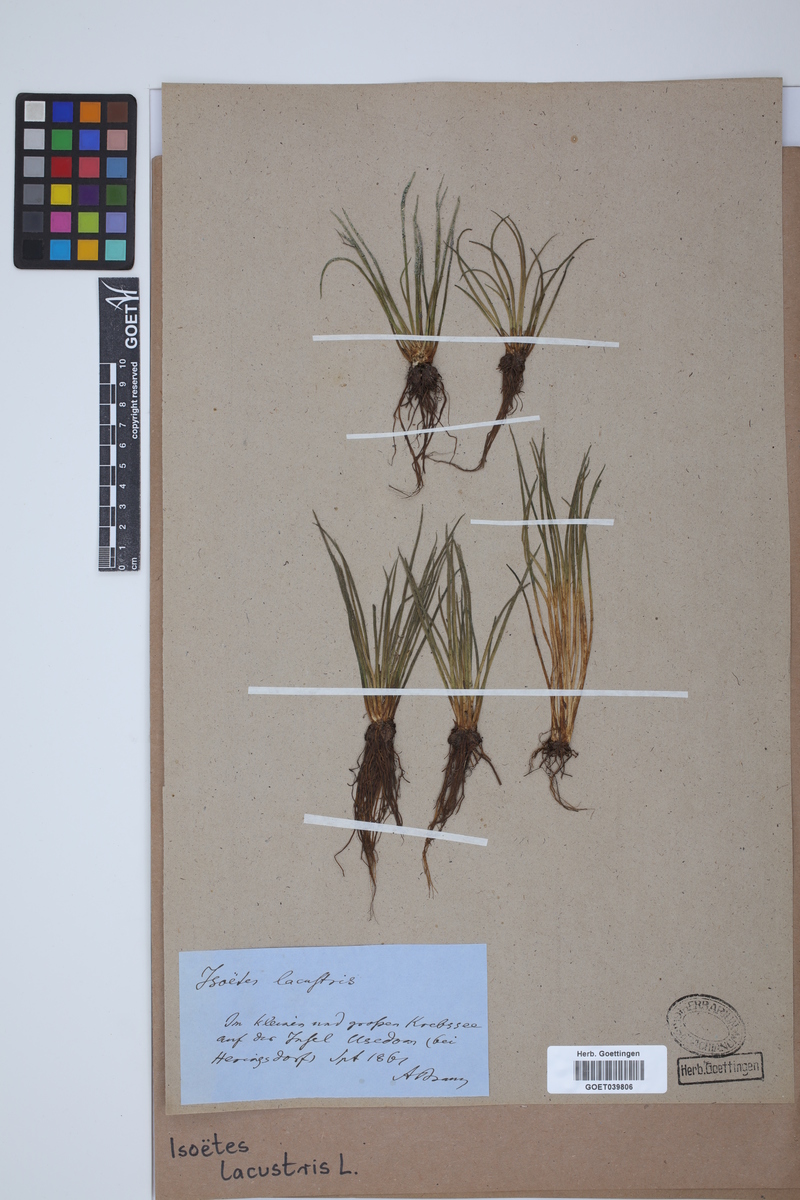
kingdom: Plantae
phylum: Tracheophyta
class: Lycopodiopsida
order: Isoetales
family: Isoetaceae
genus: Isoetes
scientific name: Isoetes lacustris
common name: Common quillwort
